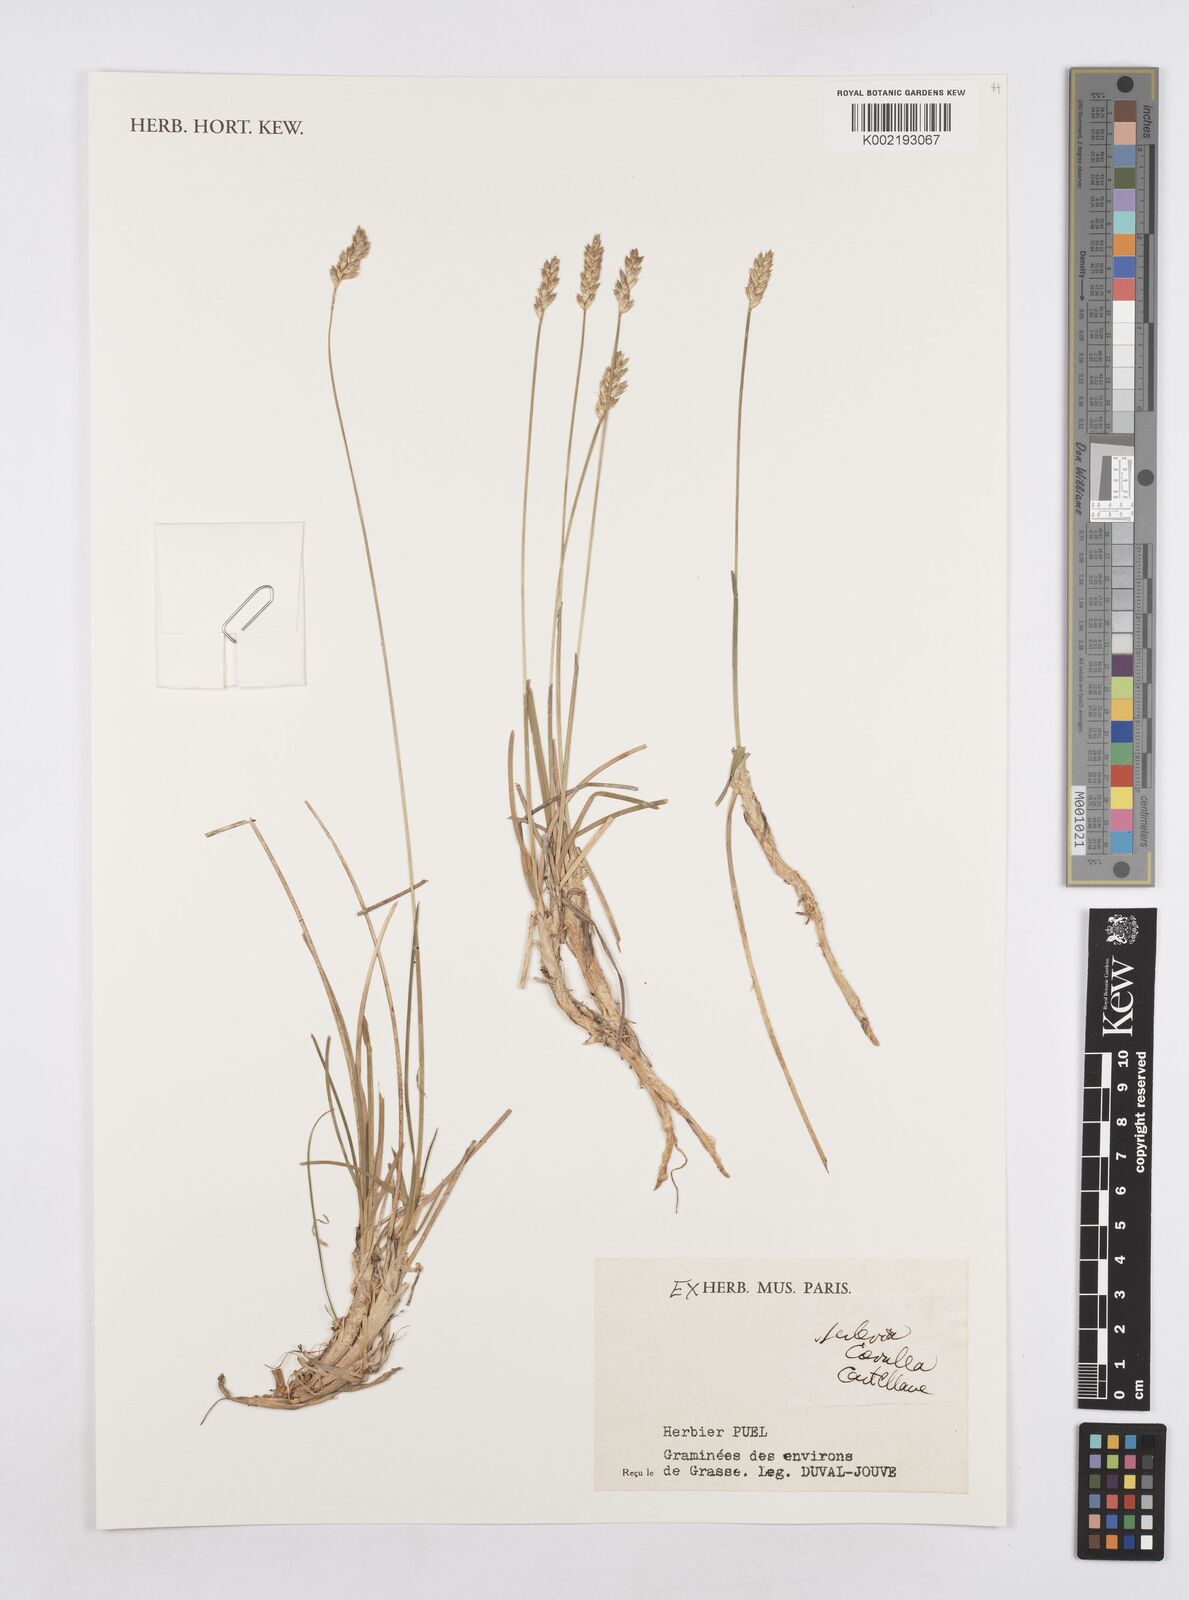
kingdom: Plantae
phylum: Tracheophyta
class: Liliopsida
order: Poales
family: Poaceae
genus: Sesleria
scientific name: Sesleria caerulea
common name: Blue moor-grass
